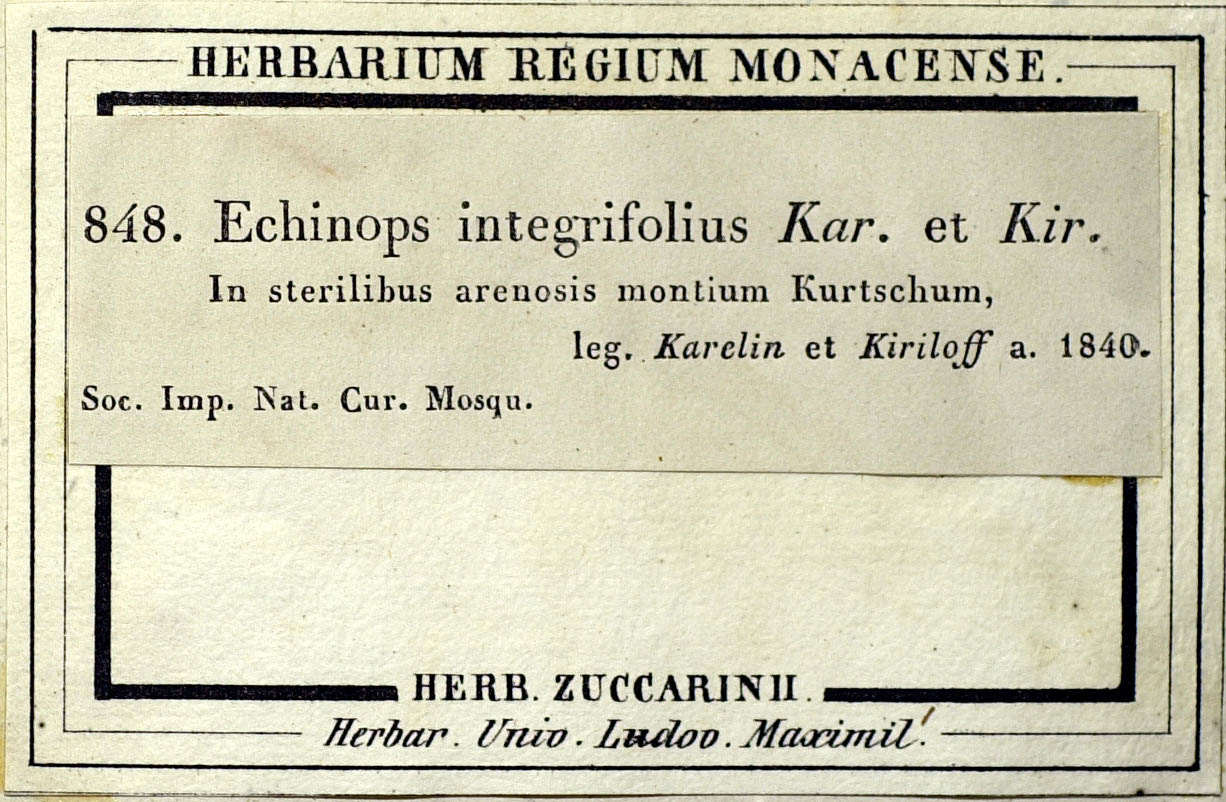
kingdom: Plantae
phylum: Tracheophyta
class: Magnoliopsida
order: Asterales
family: Asteraceae
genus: Echinops
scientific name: Echinops integrifolius
